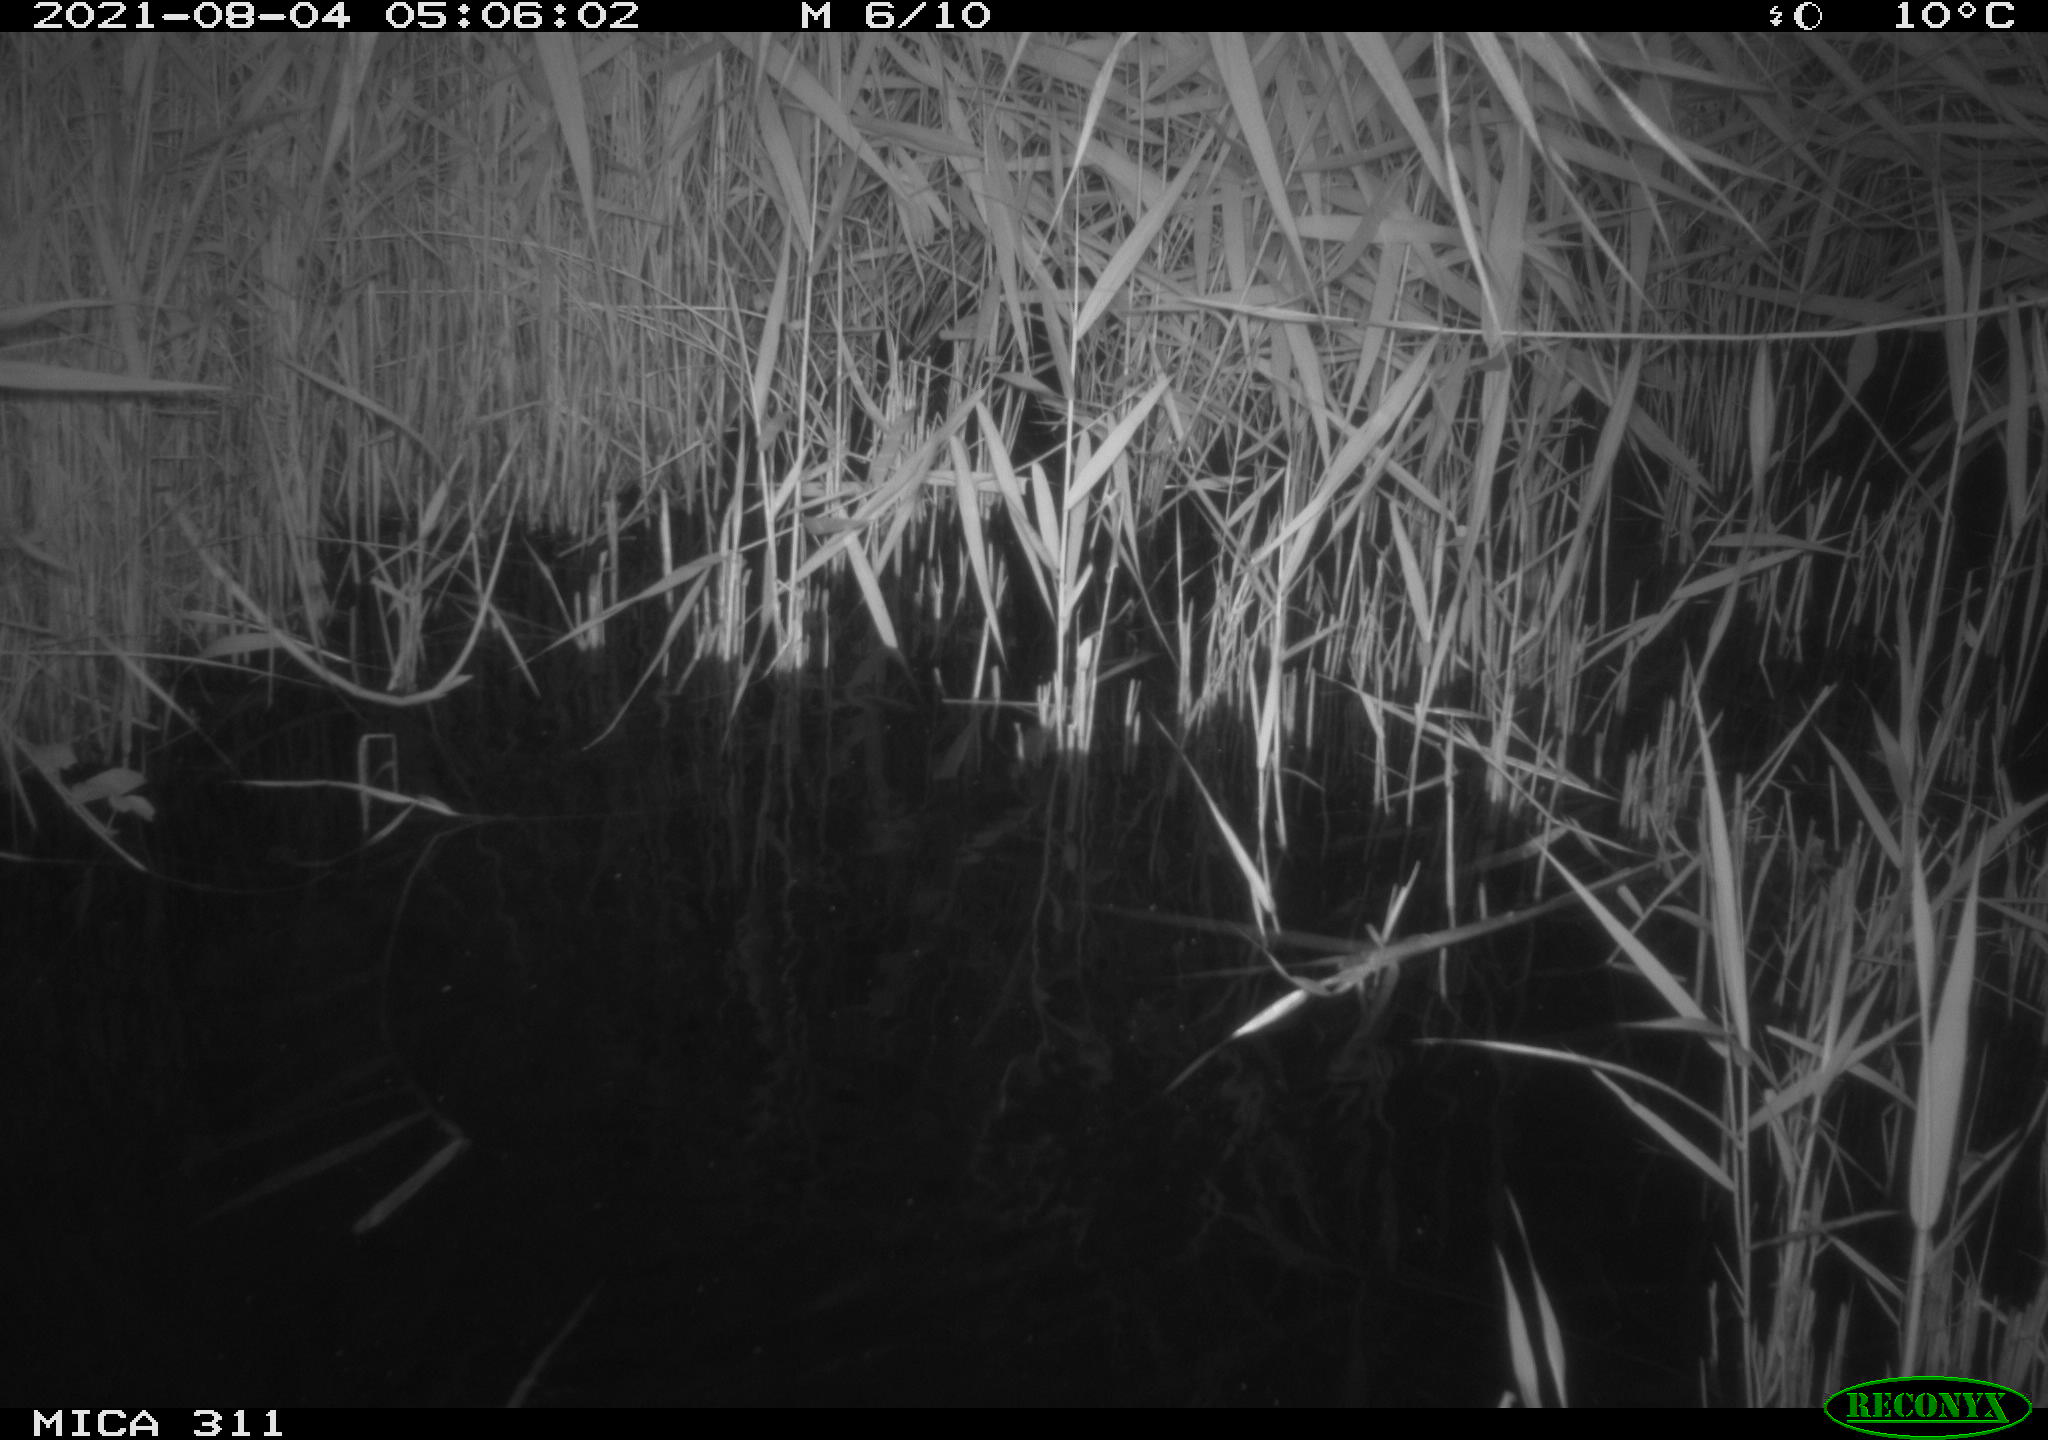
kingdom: Animalia
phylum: Chordata
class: Mammalia
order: Rodentia
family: Muridae
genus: Rattus
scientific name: Rattus norvegicus
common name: Brown rat
